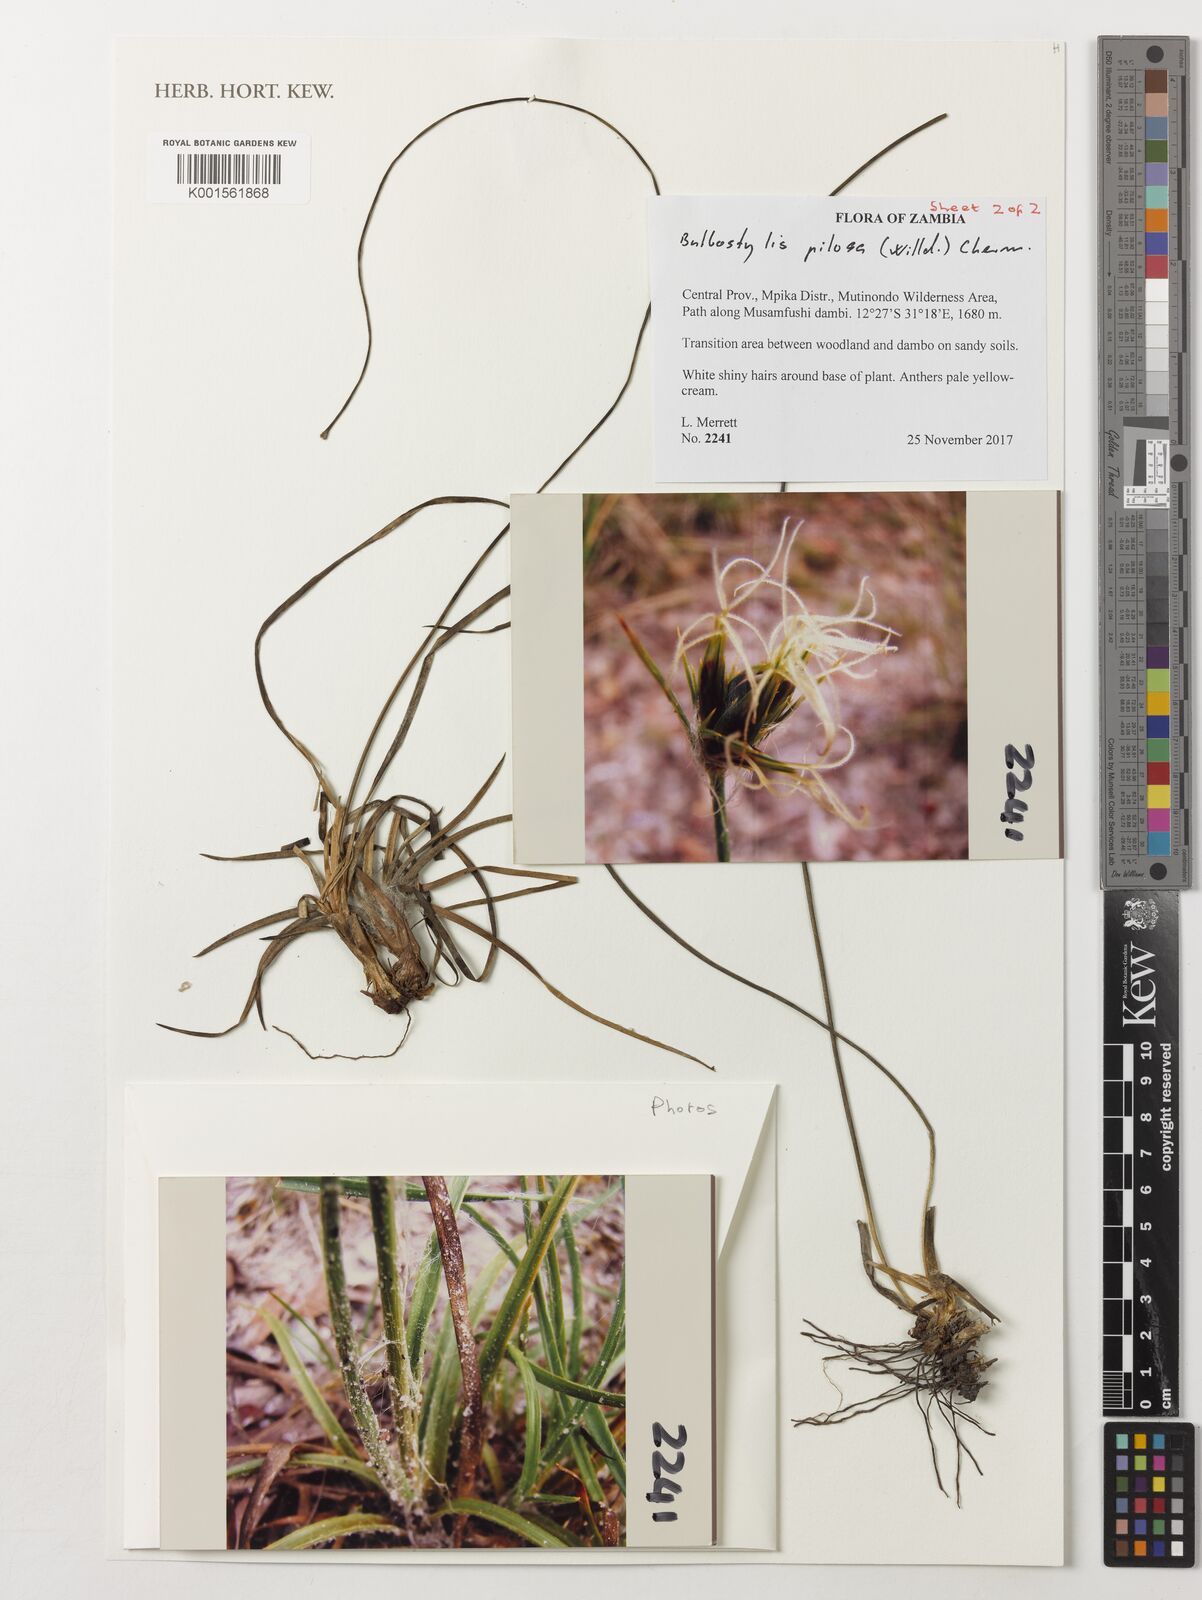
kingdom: Plantae
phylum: Tracheophyta
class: Liliopsida
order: Poales
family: Cyperaceae
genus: Bulbostylis
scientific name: Bulbostylis pilosa
